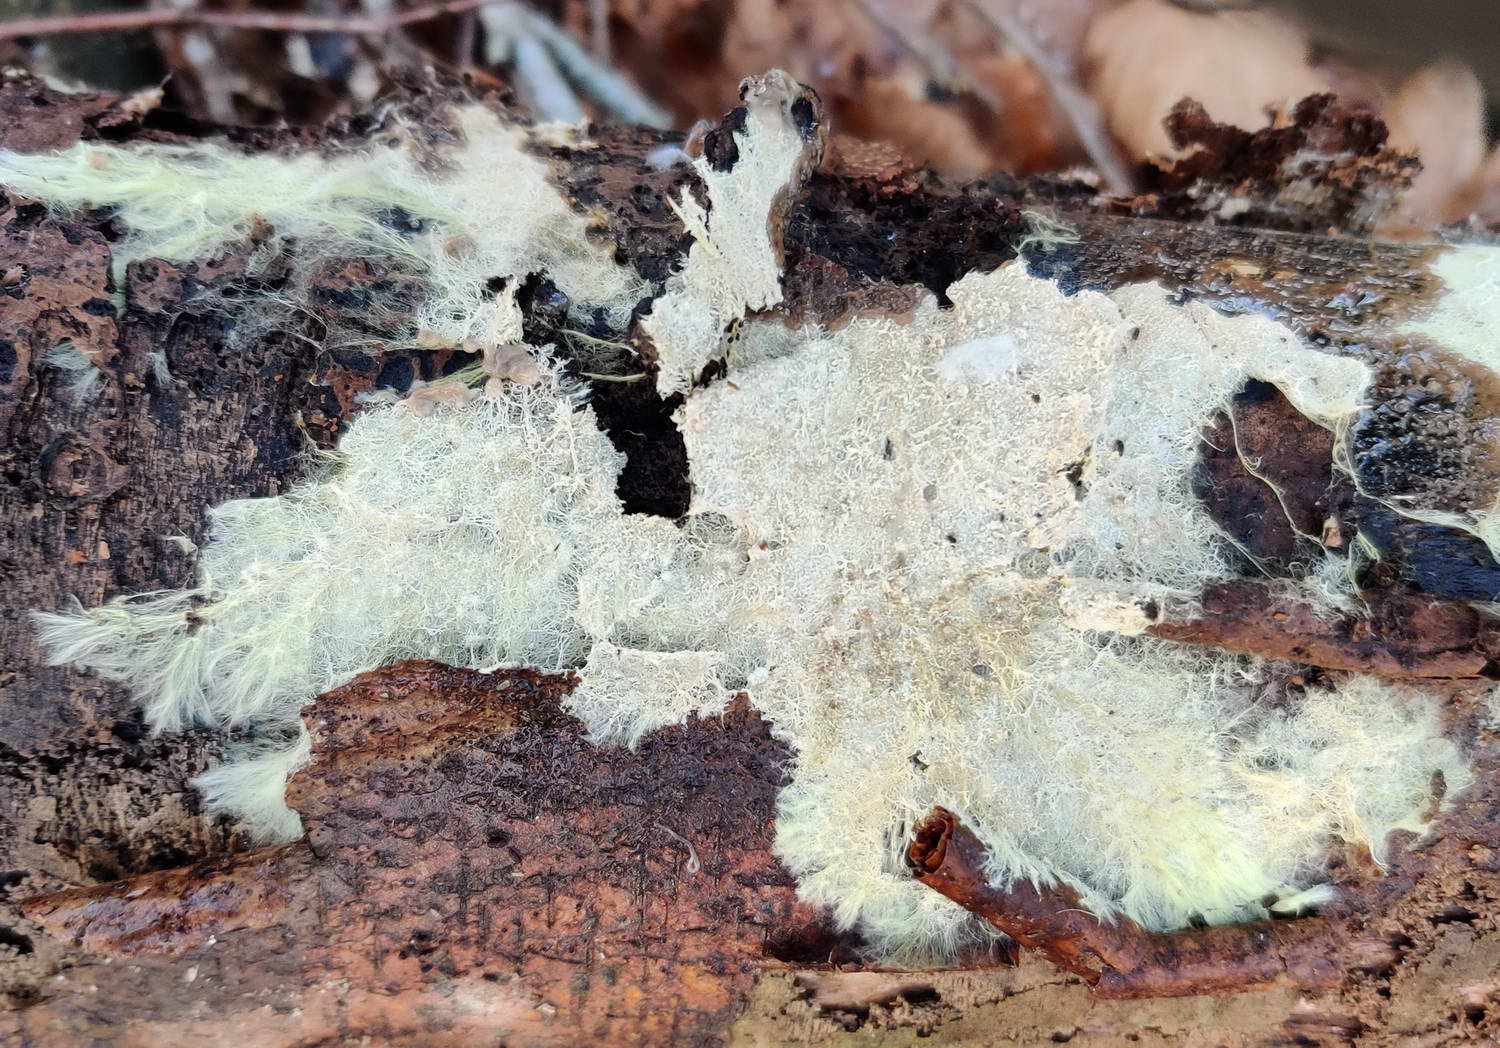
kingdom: Fungi
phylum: Basidiomycota
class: Agaricomycetes
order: Russulales
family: Xenasmataceae
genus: Xenasmatella
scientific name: Xenasmatella vaga
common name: svovl-strenghinde
